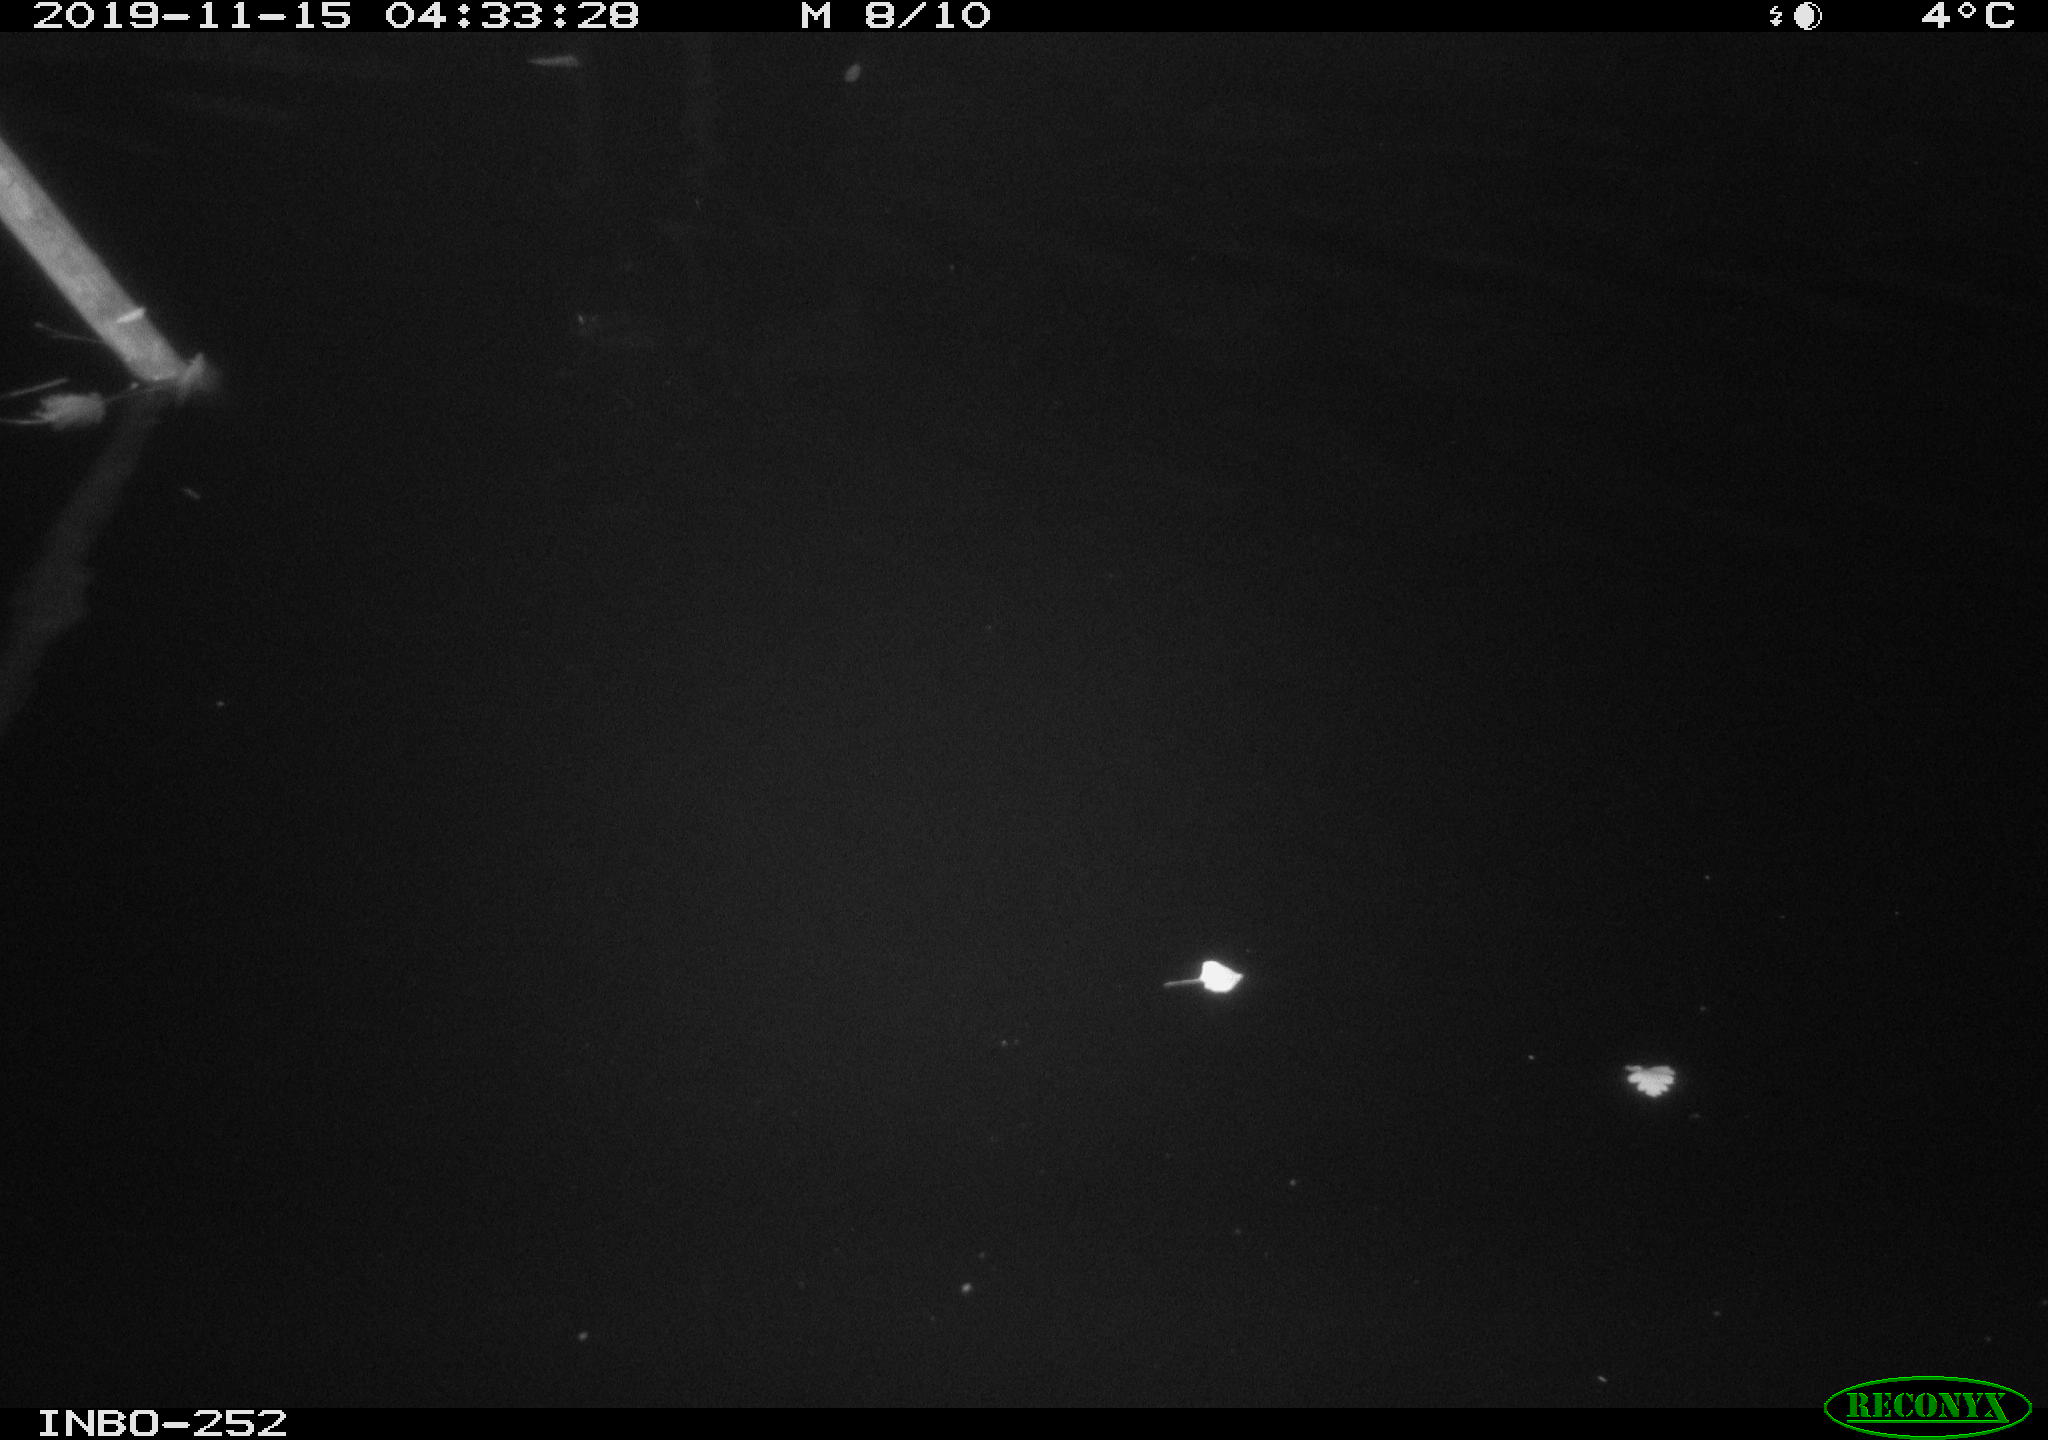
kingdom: Animalia
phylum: Chordata
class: Aves
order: Anseriformes
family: Anatidae
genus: Anas
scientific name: Anas platyrhynchos
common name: Mallard
